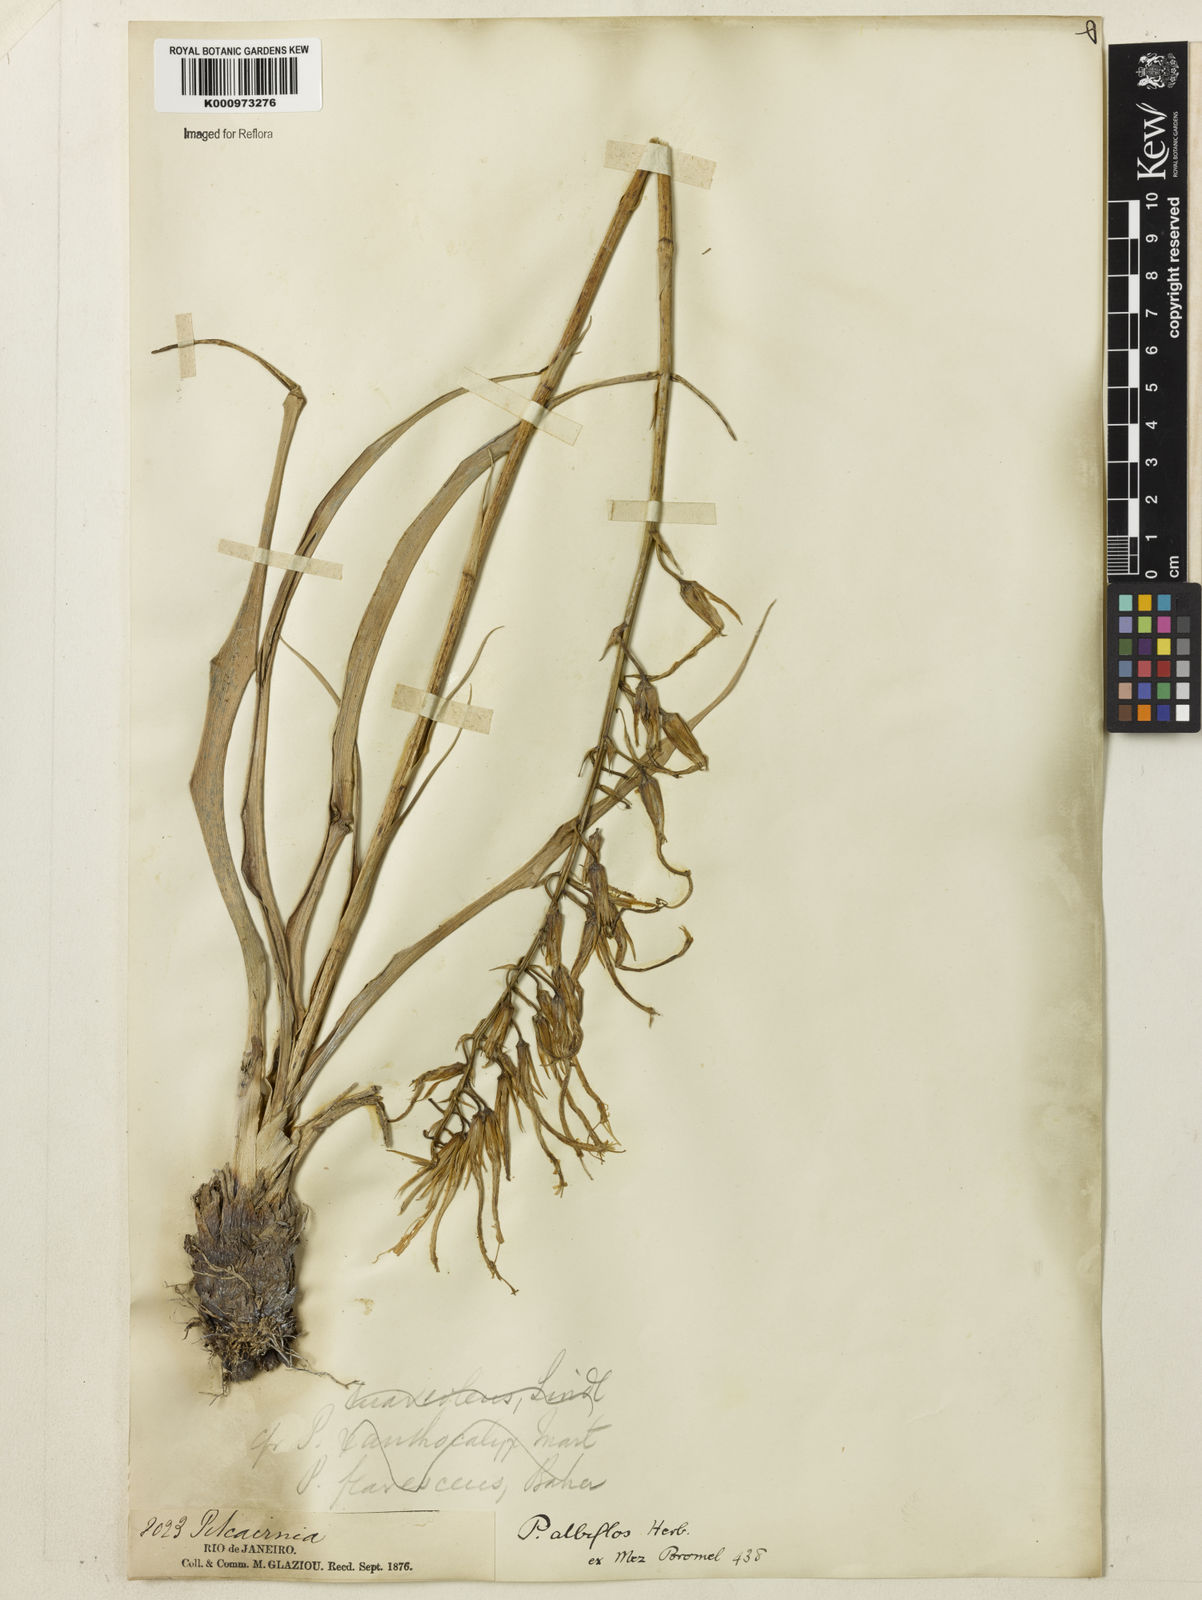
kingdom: Plantae
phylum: Tracheophyta
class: Liliopsida
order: Poales
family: Bromeliaceae
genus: Pitcairnia
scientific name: Pitcairnia albiflos
